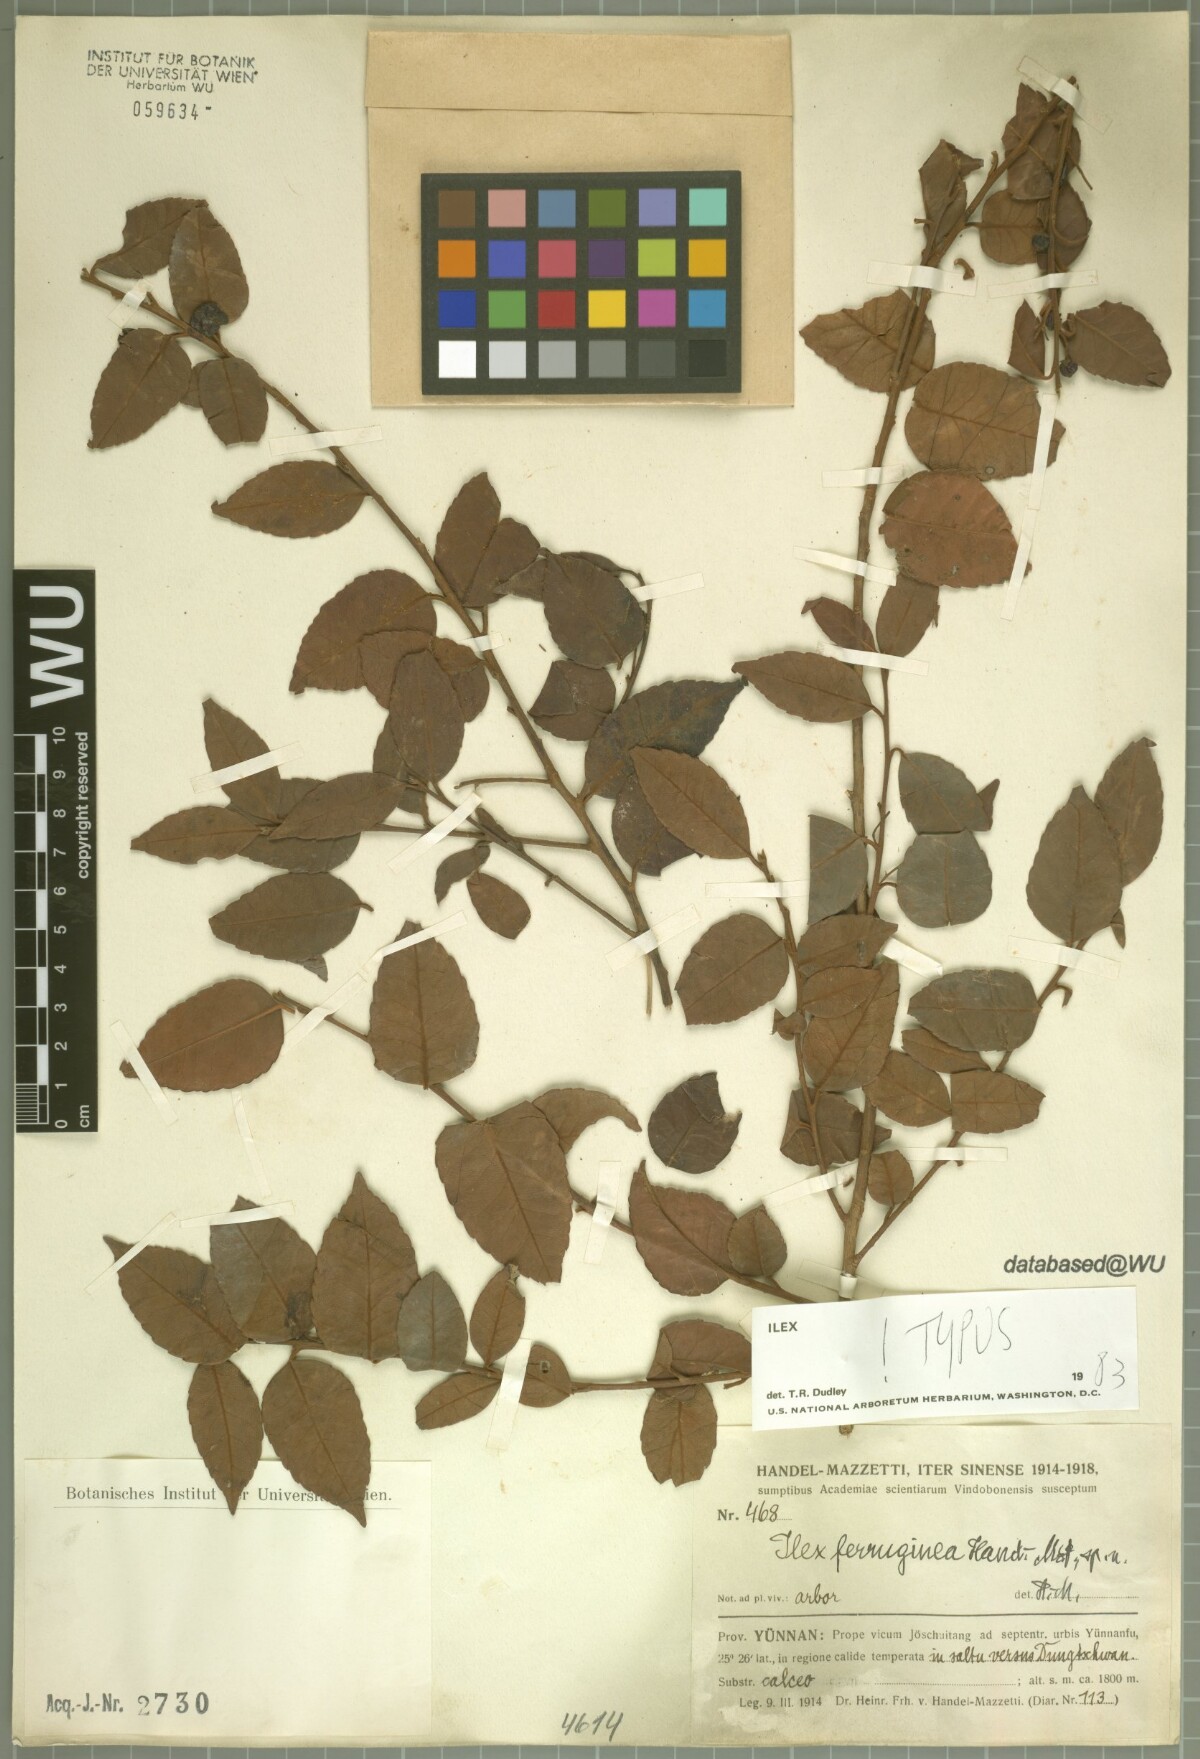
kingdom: Plantae
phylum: Tracheophyta
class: Magnoliopsida
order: Aquifoliales
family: Aquifoliaceae
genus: Ilex
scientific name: Ilex ferruginea
